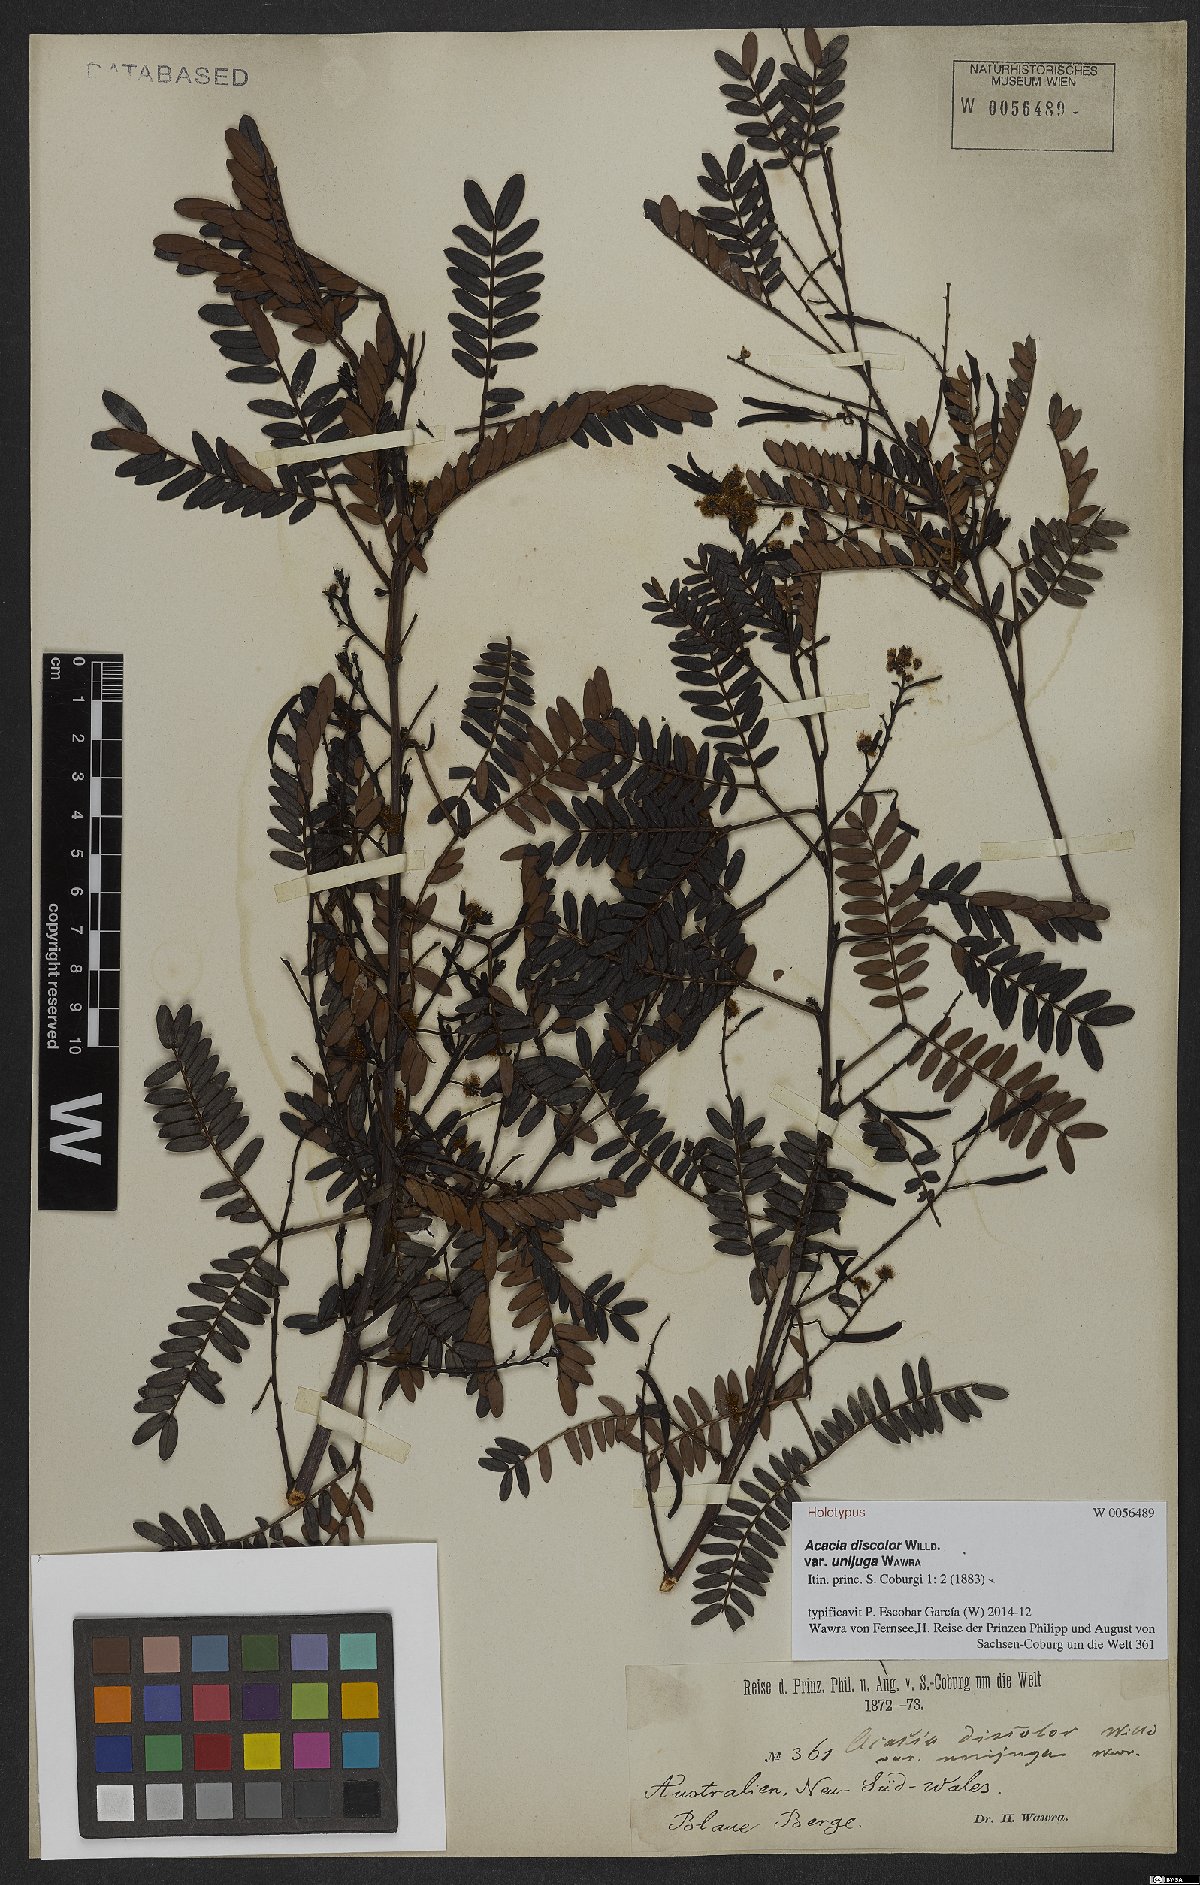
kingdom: Plantae
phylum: Tracheophyta
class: Magnoliopsida
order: Fabales
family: Fabaceae
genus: Acacia
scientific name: Acacia terminalis
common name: Cedar wattle
